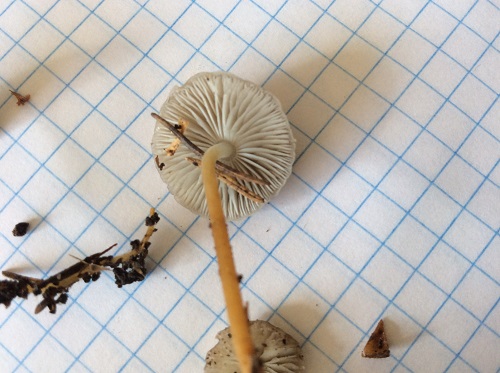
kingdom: Fungi
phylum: Basidiomycota
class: Agaricomycetes
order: Agaricales
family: Physalacriaceae
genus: Strobilurus
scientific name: Strobilurus esculentus
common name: gran-koglehat
